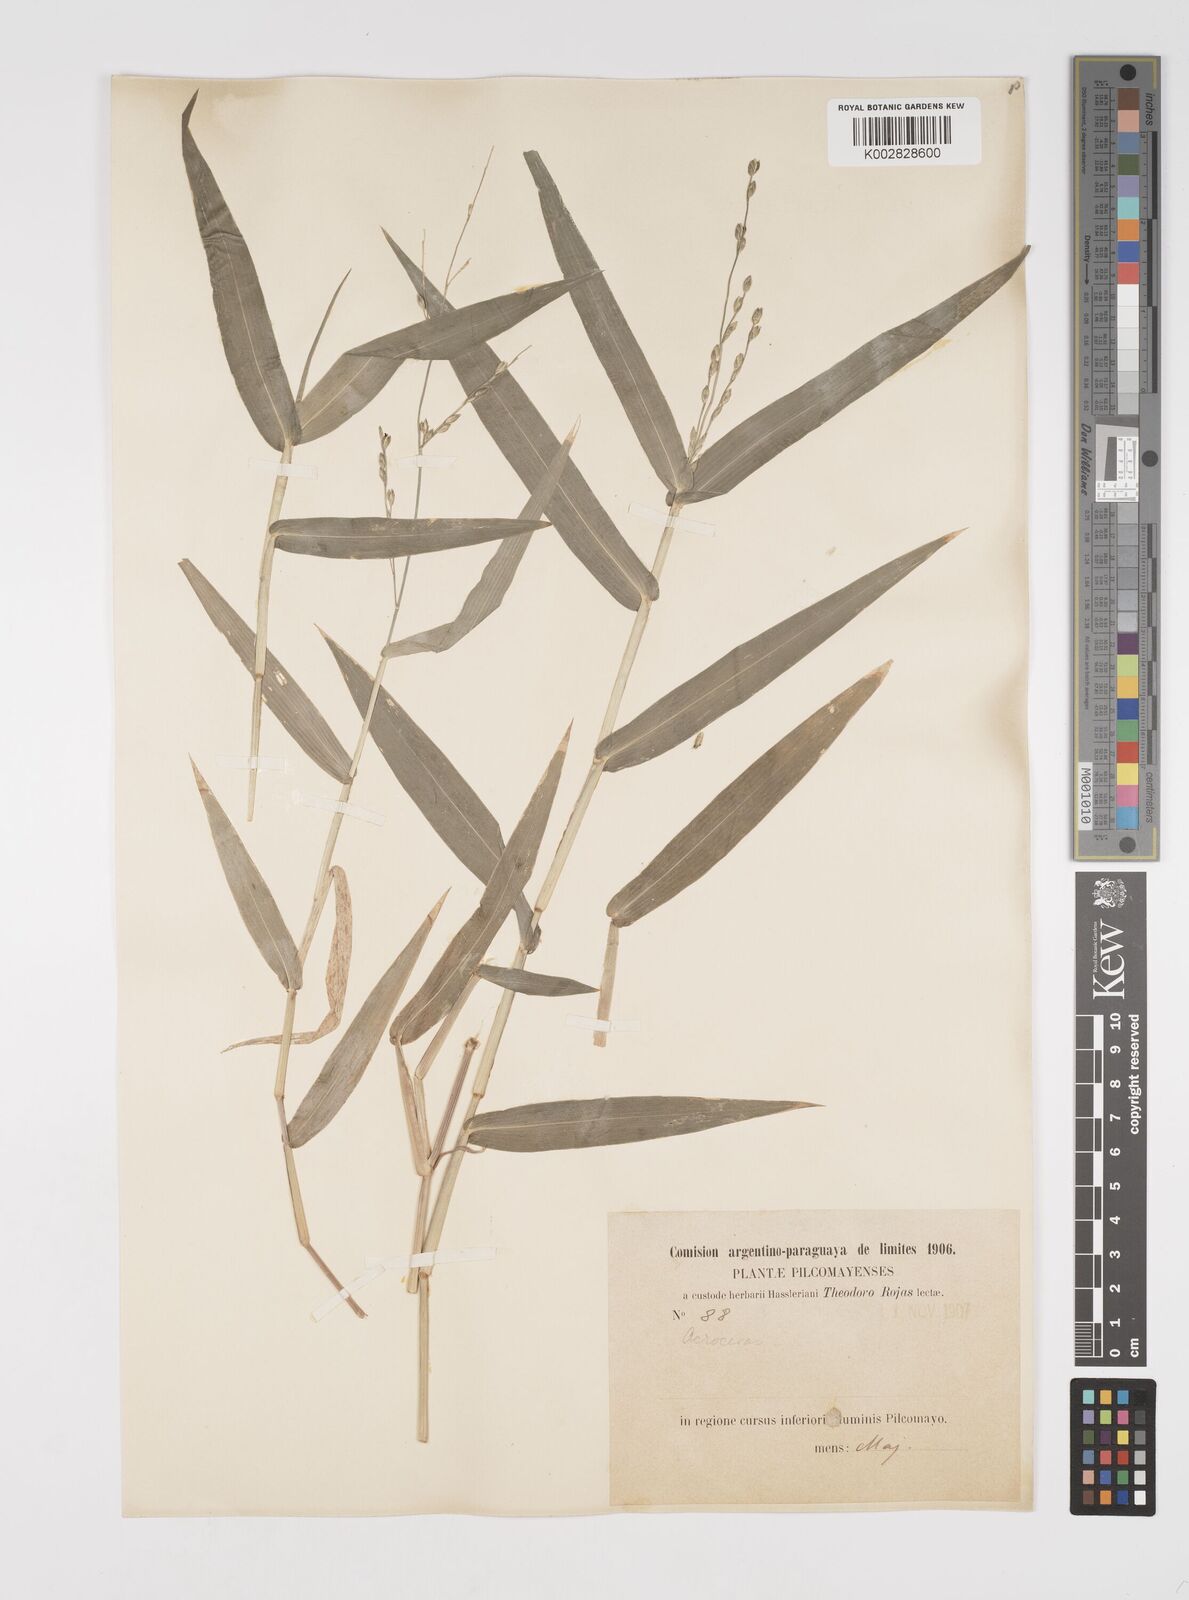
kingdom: Plantae
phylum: Tracheophyta
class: Liliopsida
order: Poales
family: Poaceae
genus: Acroceras
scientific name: Acroceras zizanioides
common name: Oat grass
